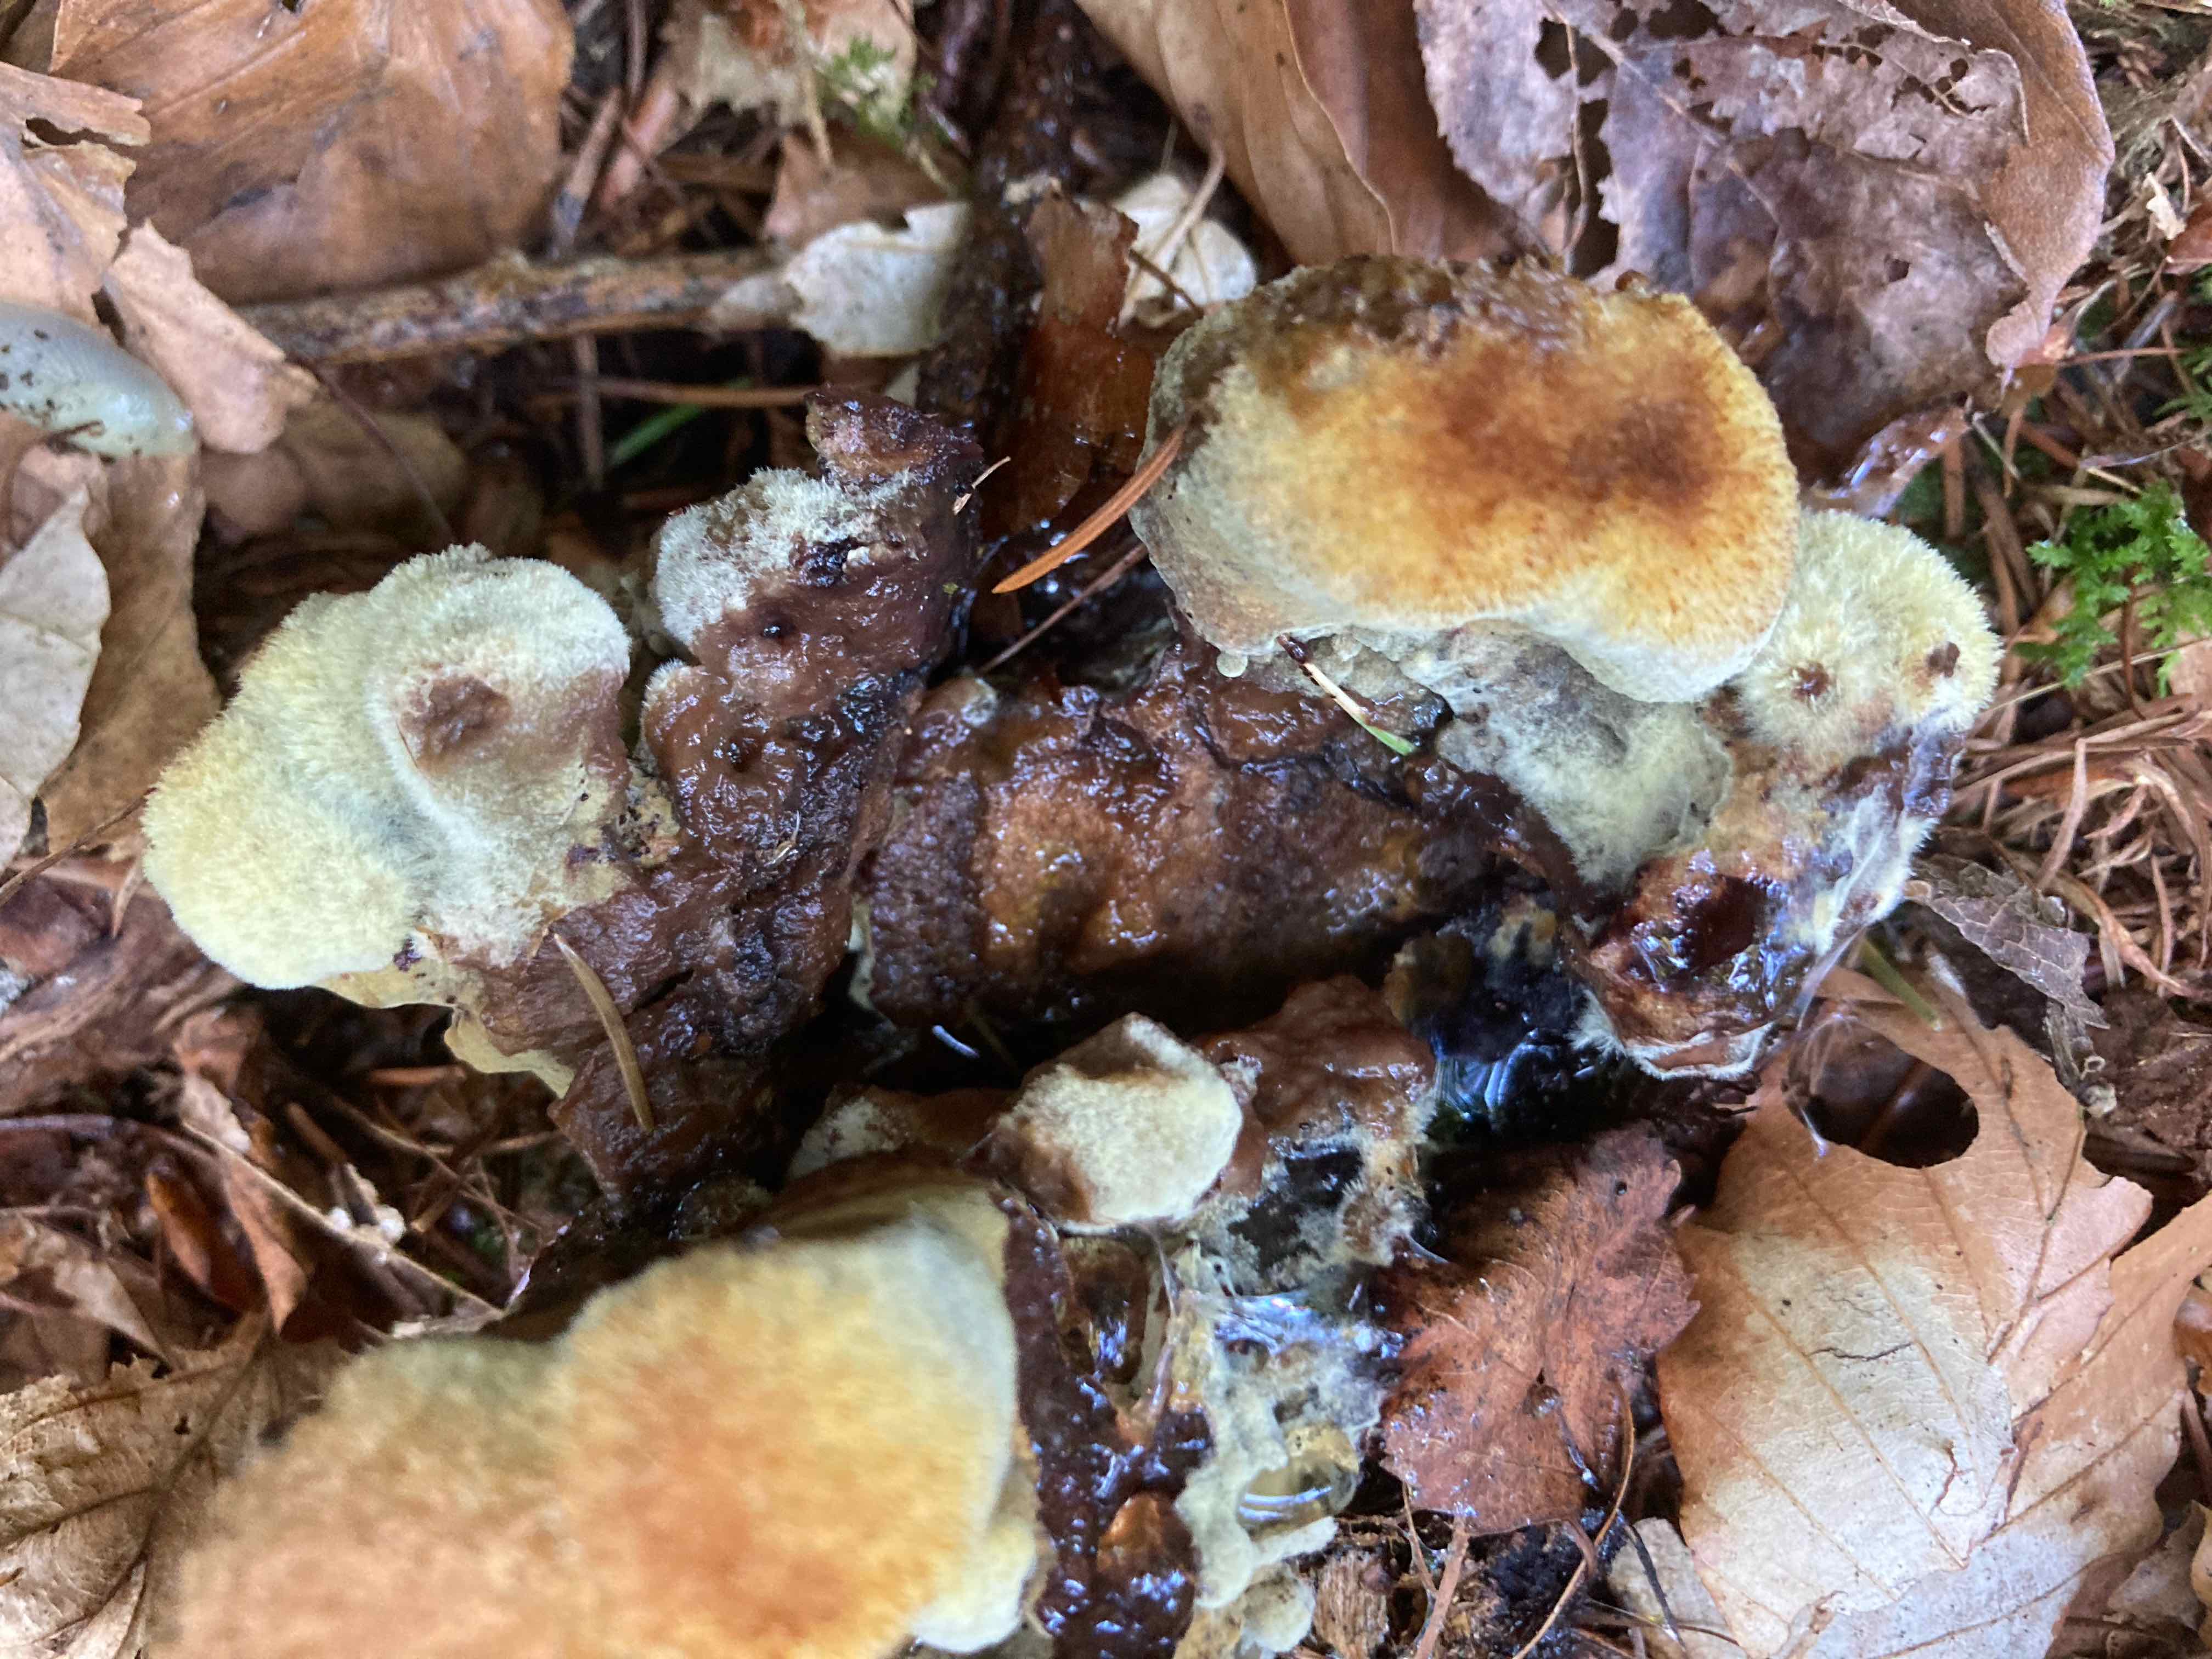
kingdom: Fungi
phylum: Basidiomycota
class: Agaricomycetes
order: Polyporales
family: Laetiporaceae
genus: Phaeolus
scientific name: Phaeolus schweinitzii
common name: brunporesvamp
